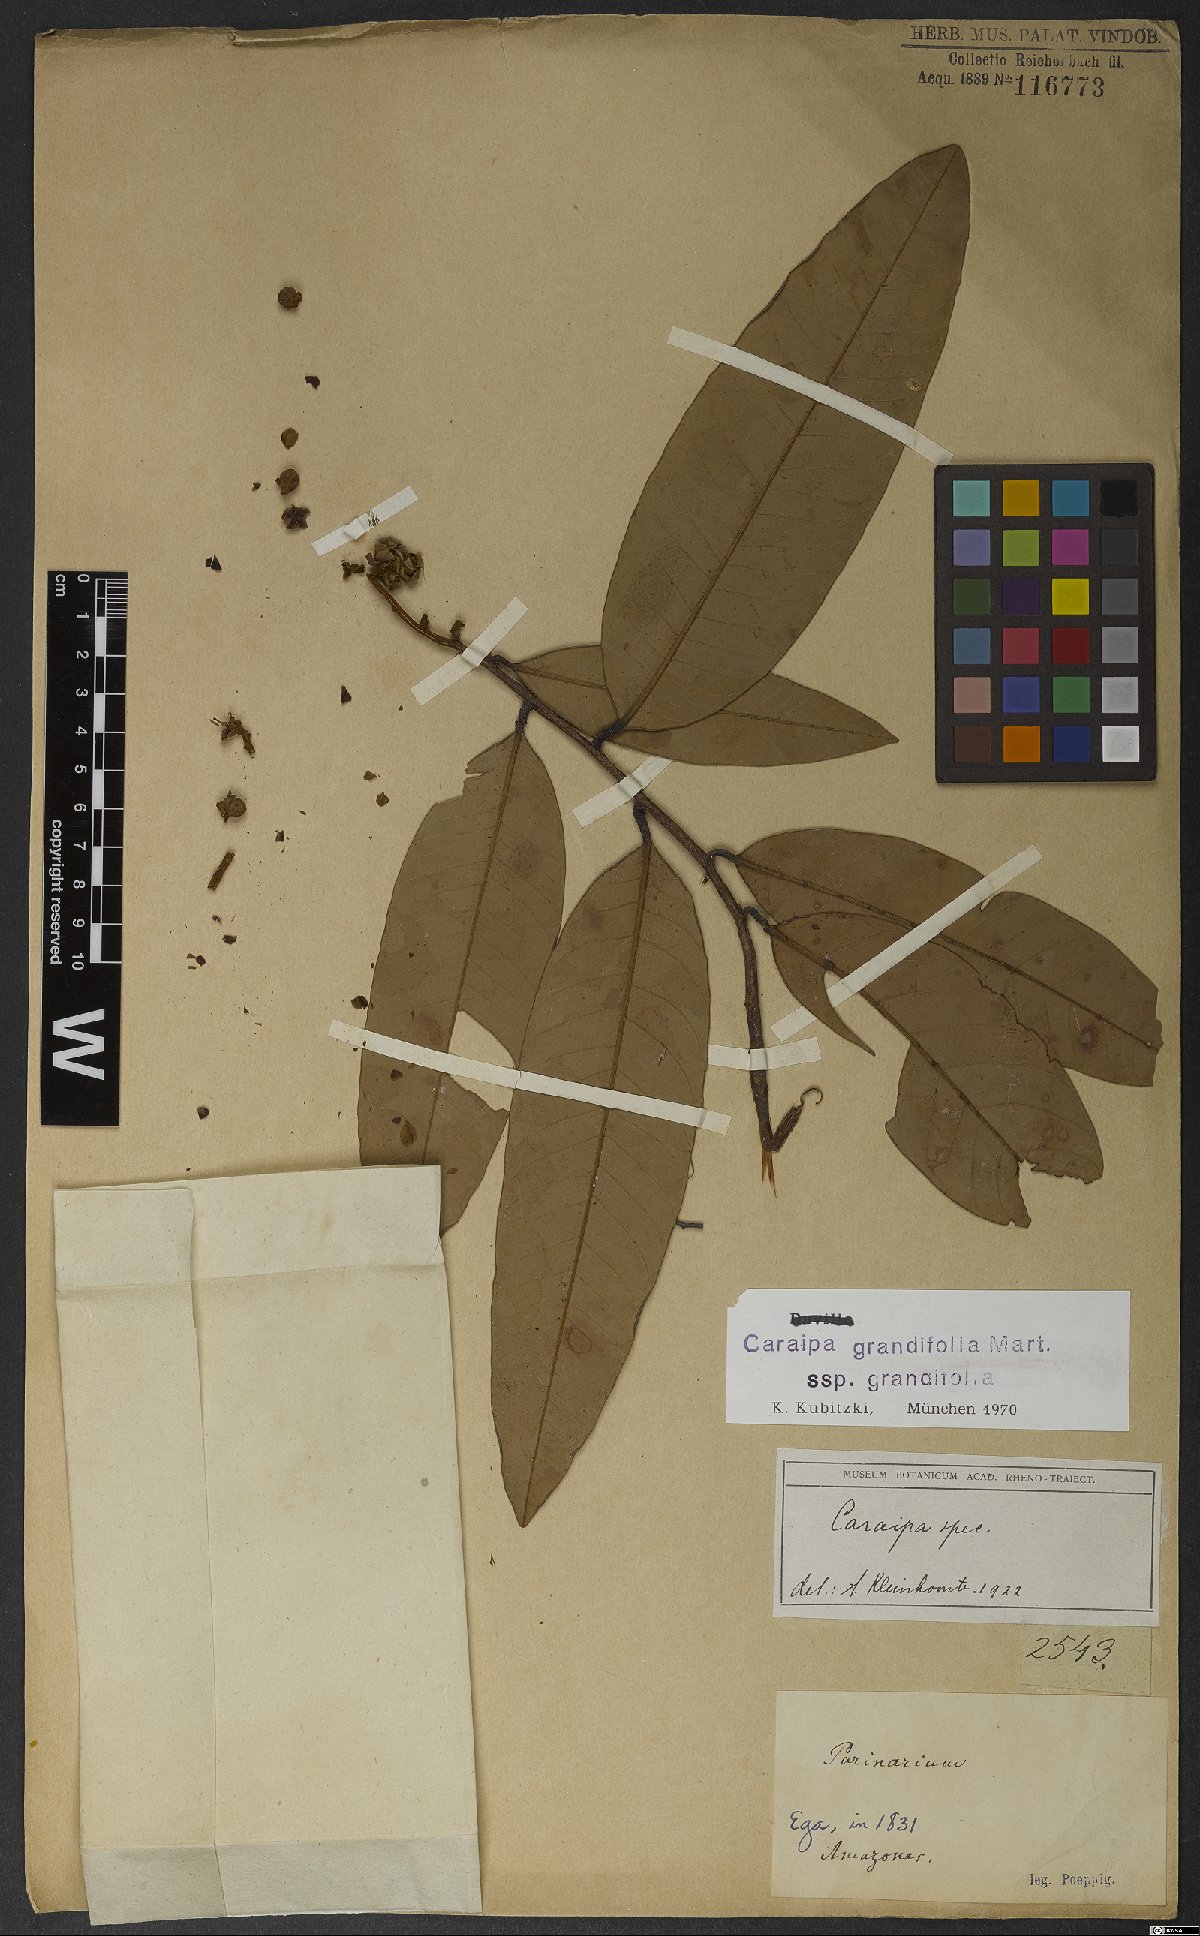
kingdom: Plantae
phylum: Tracheophyta
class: Magnoliopsida
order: Malpighiales
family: Calophyllaceae
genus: Caraipa
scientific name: Caraipa grandifolia
